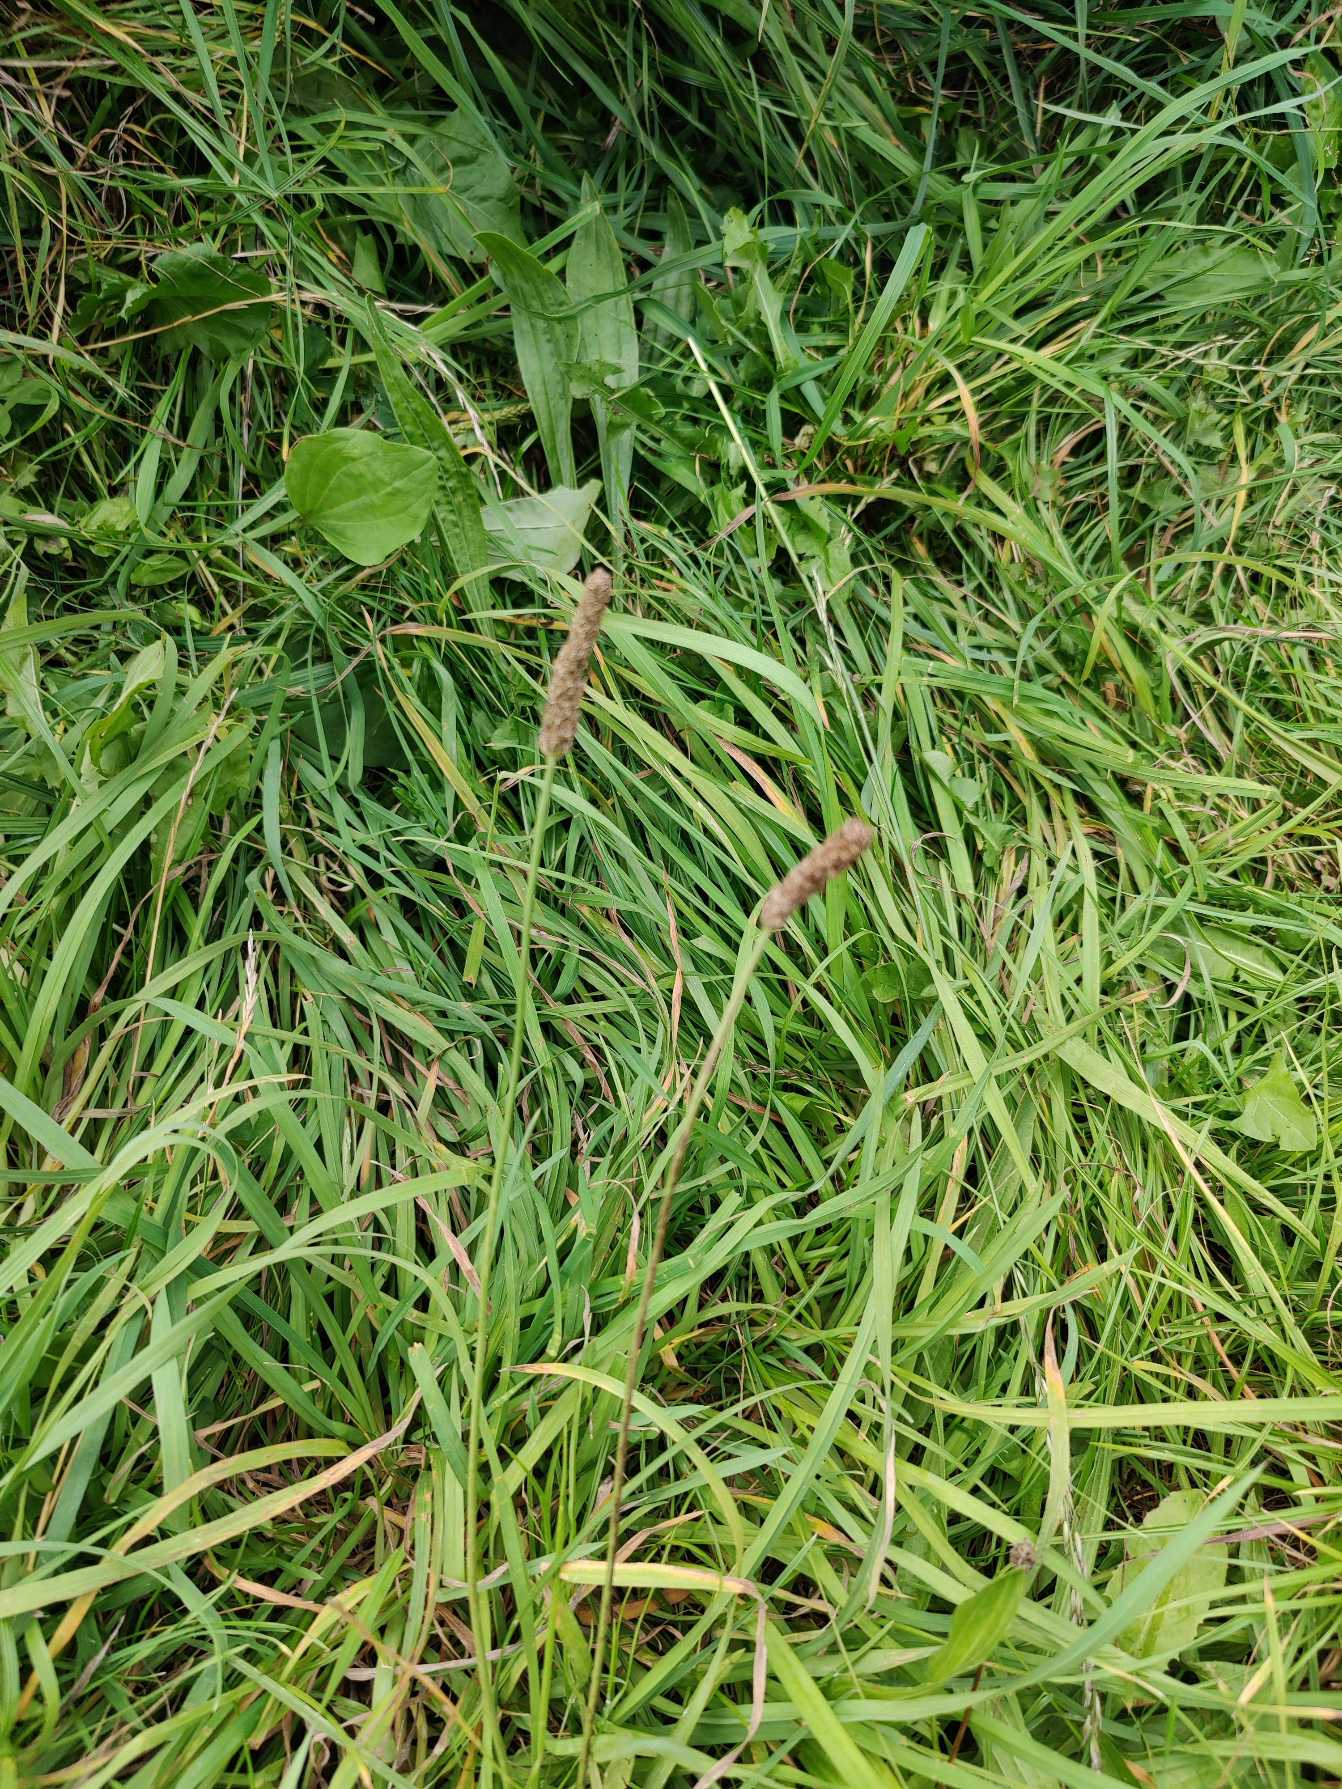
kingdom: Plantae
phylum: Tracheophyta
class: Magnoliopsida
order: Lamiales
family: Plantaginaceae
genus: Plantago
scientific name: Plantago lanceolata
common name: Lancet-vejbred
